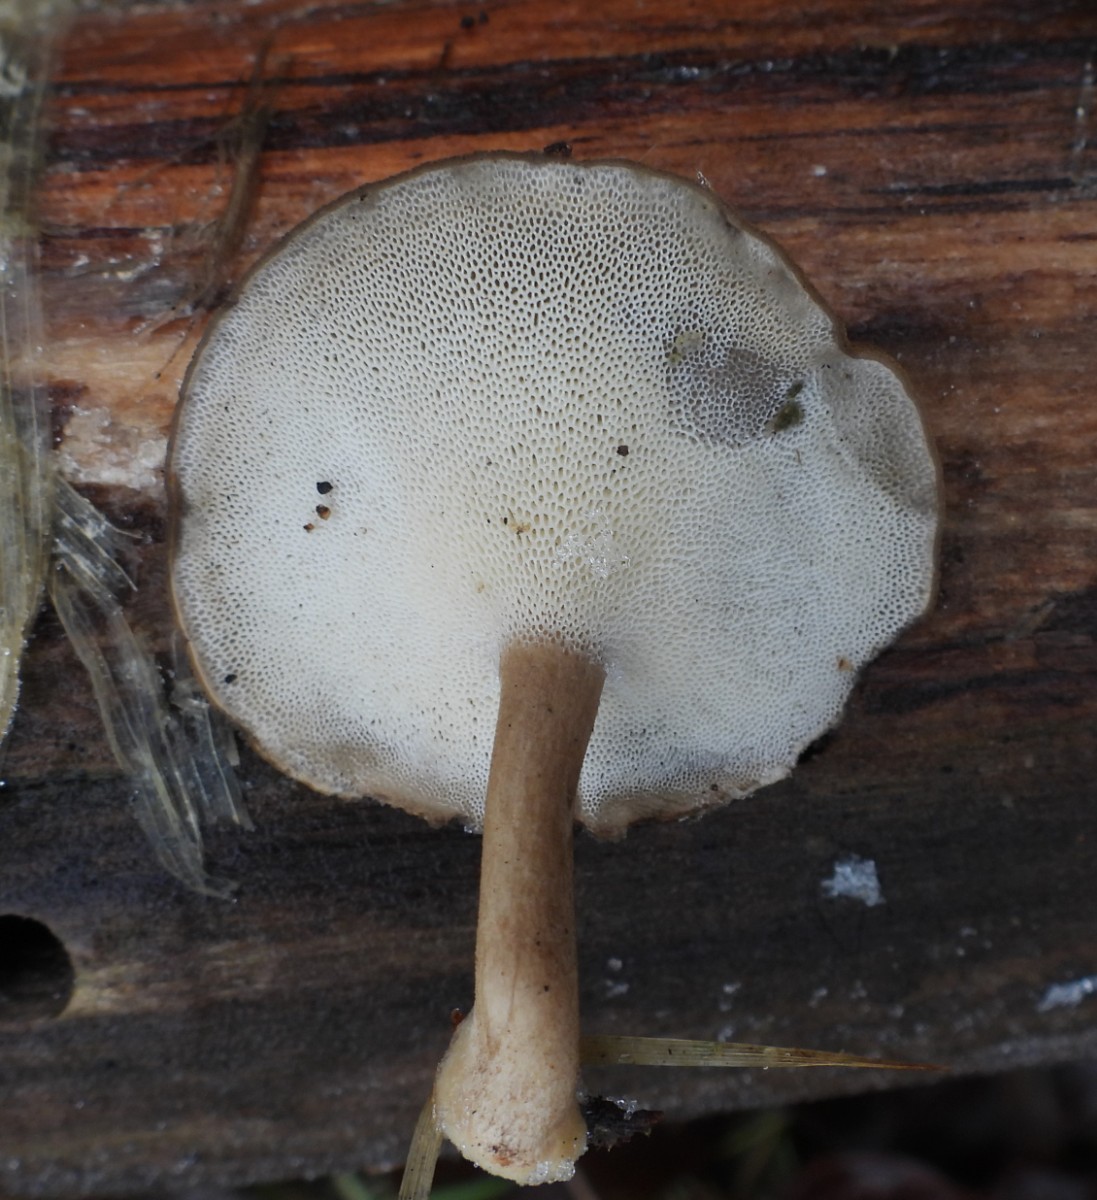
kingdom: Fungi
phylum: Basidiomycota
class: Agaricomycetes
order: Polyporales
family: Polyporaceae
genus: Lentinus
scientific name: Lentinus brumalis
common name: vinter-stilkporesvamp
